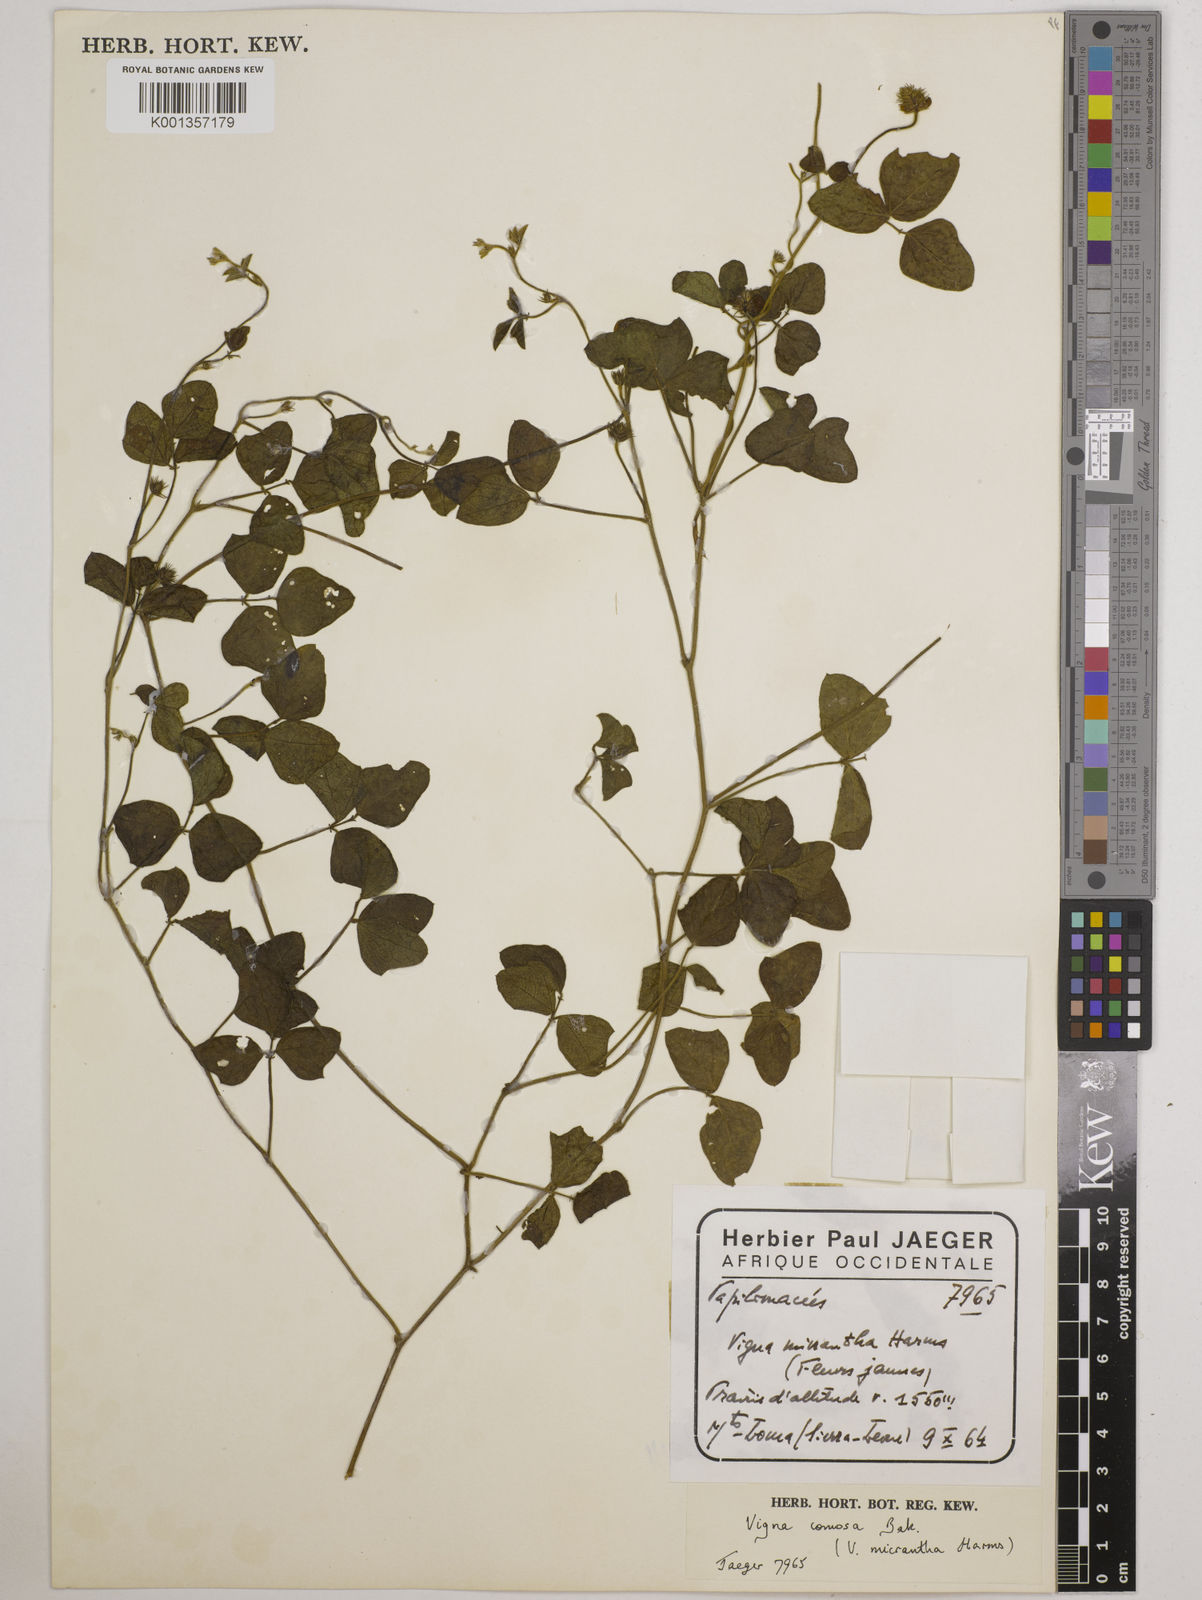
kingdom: Plantae
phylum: Tracheophyta
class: Magnoliopsida
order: Fabales
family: Fabaceae
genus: Vigna
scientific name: Vigna comosa
